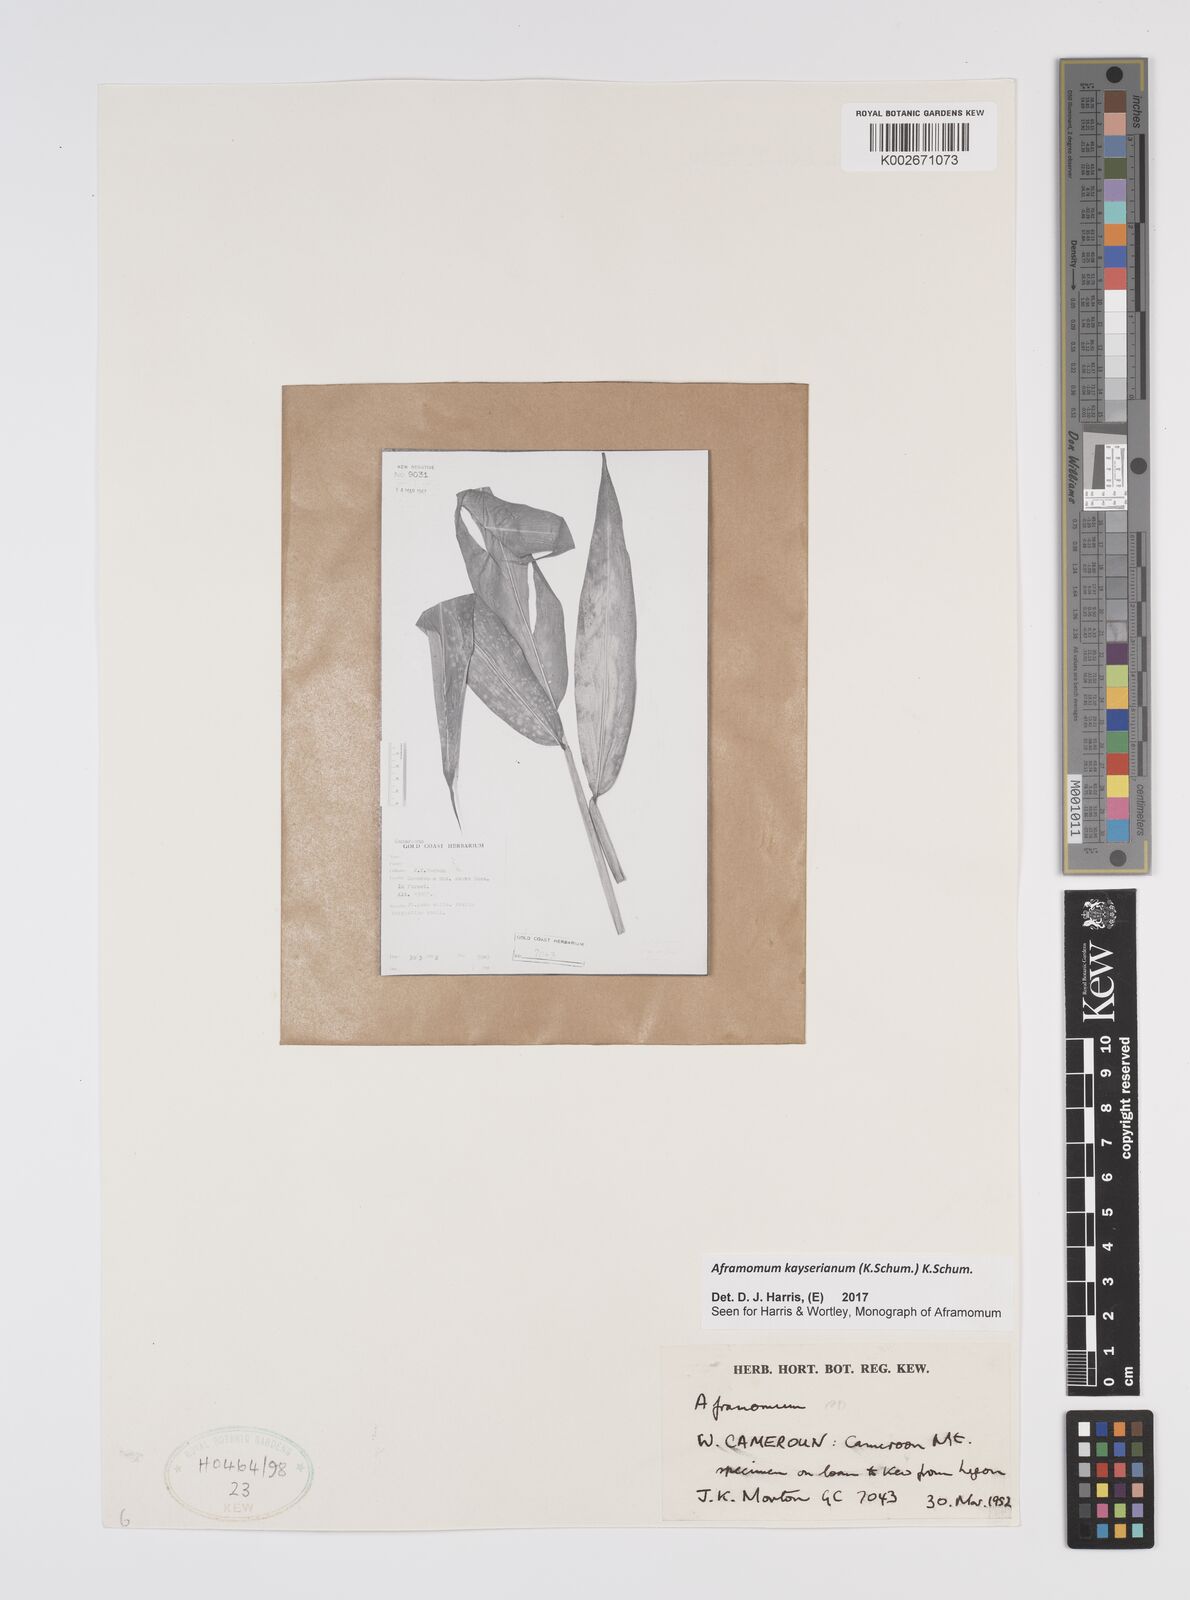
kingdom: Plantae
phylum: Tracheophyta
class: Liliopsida
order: Zingiberales
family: Zingiberaceae
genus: Aframomum
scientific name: Aframomum kayserianum
